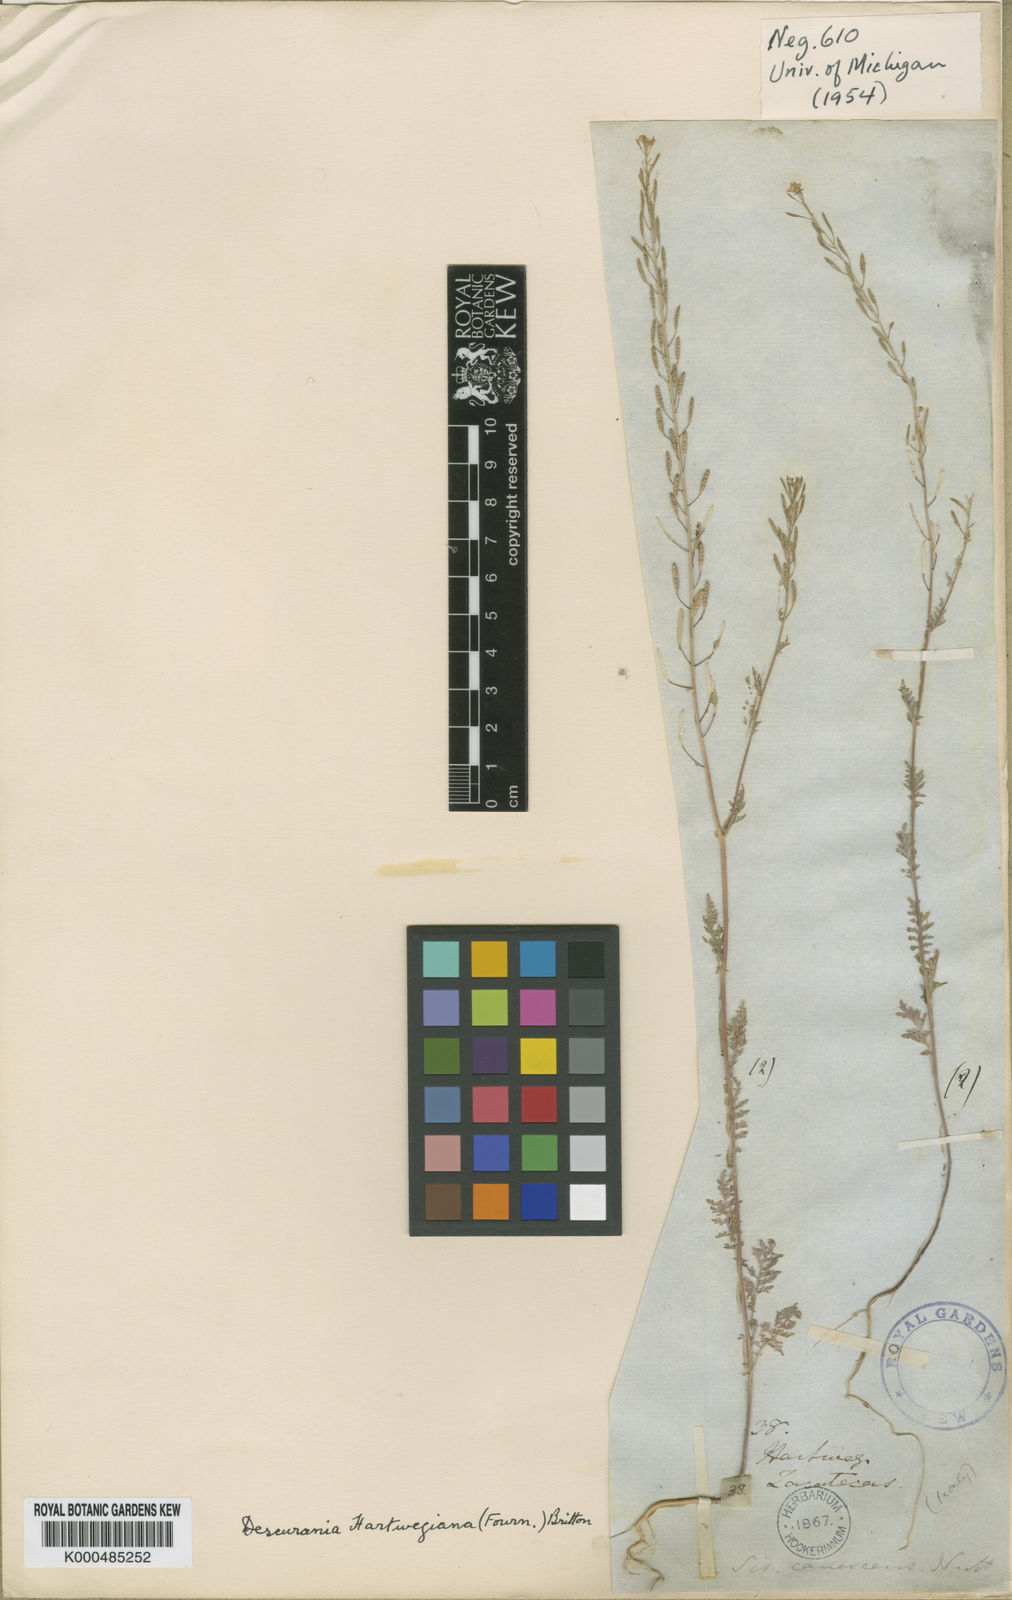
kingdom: Plantae
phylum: Tracheophyta
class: Magnoliopsida
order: Brassicales
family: Brassicaceae
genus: Descurainia
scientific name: Descurainia hartwegiana
